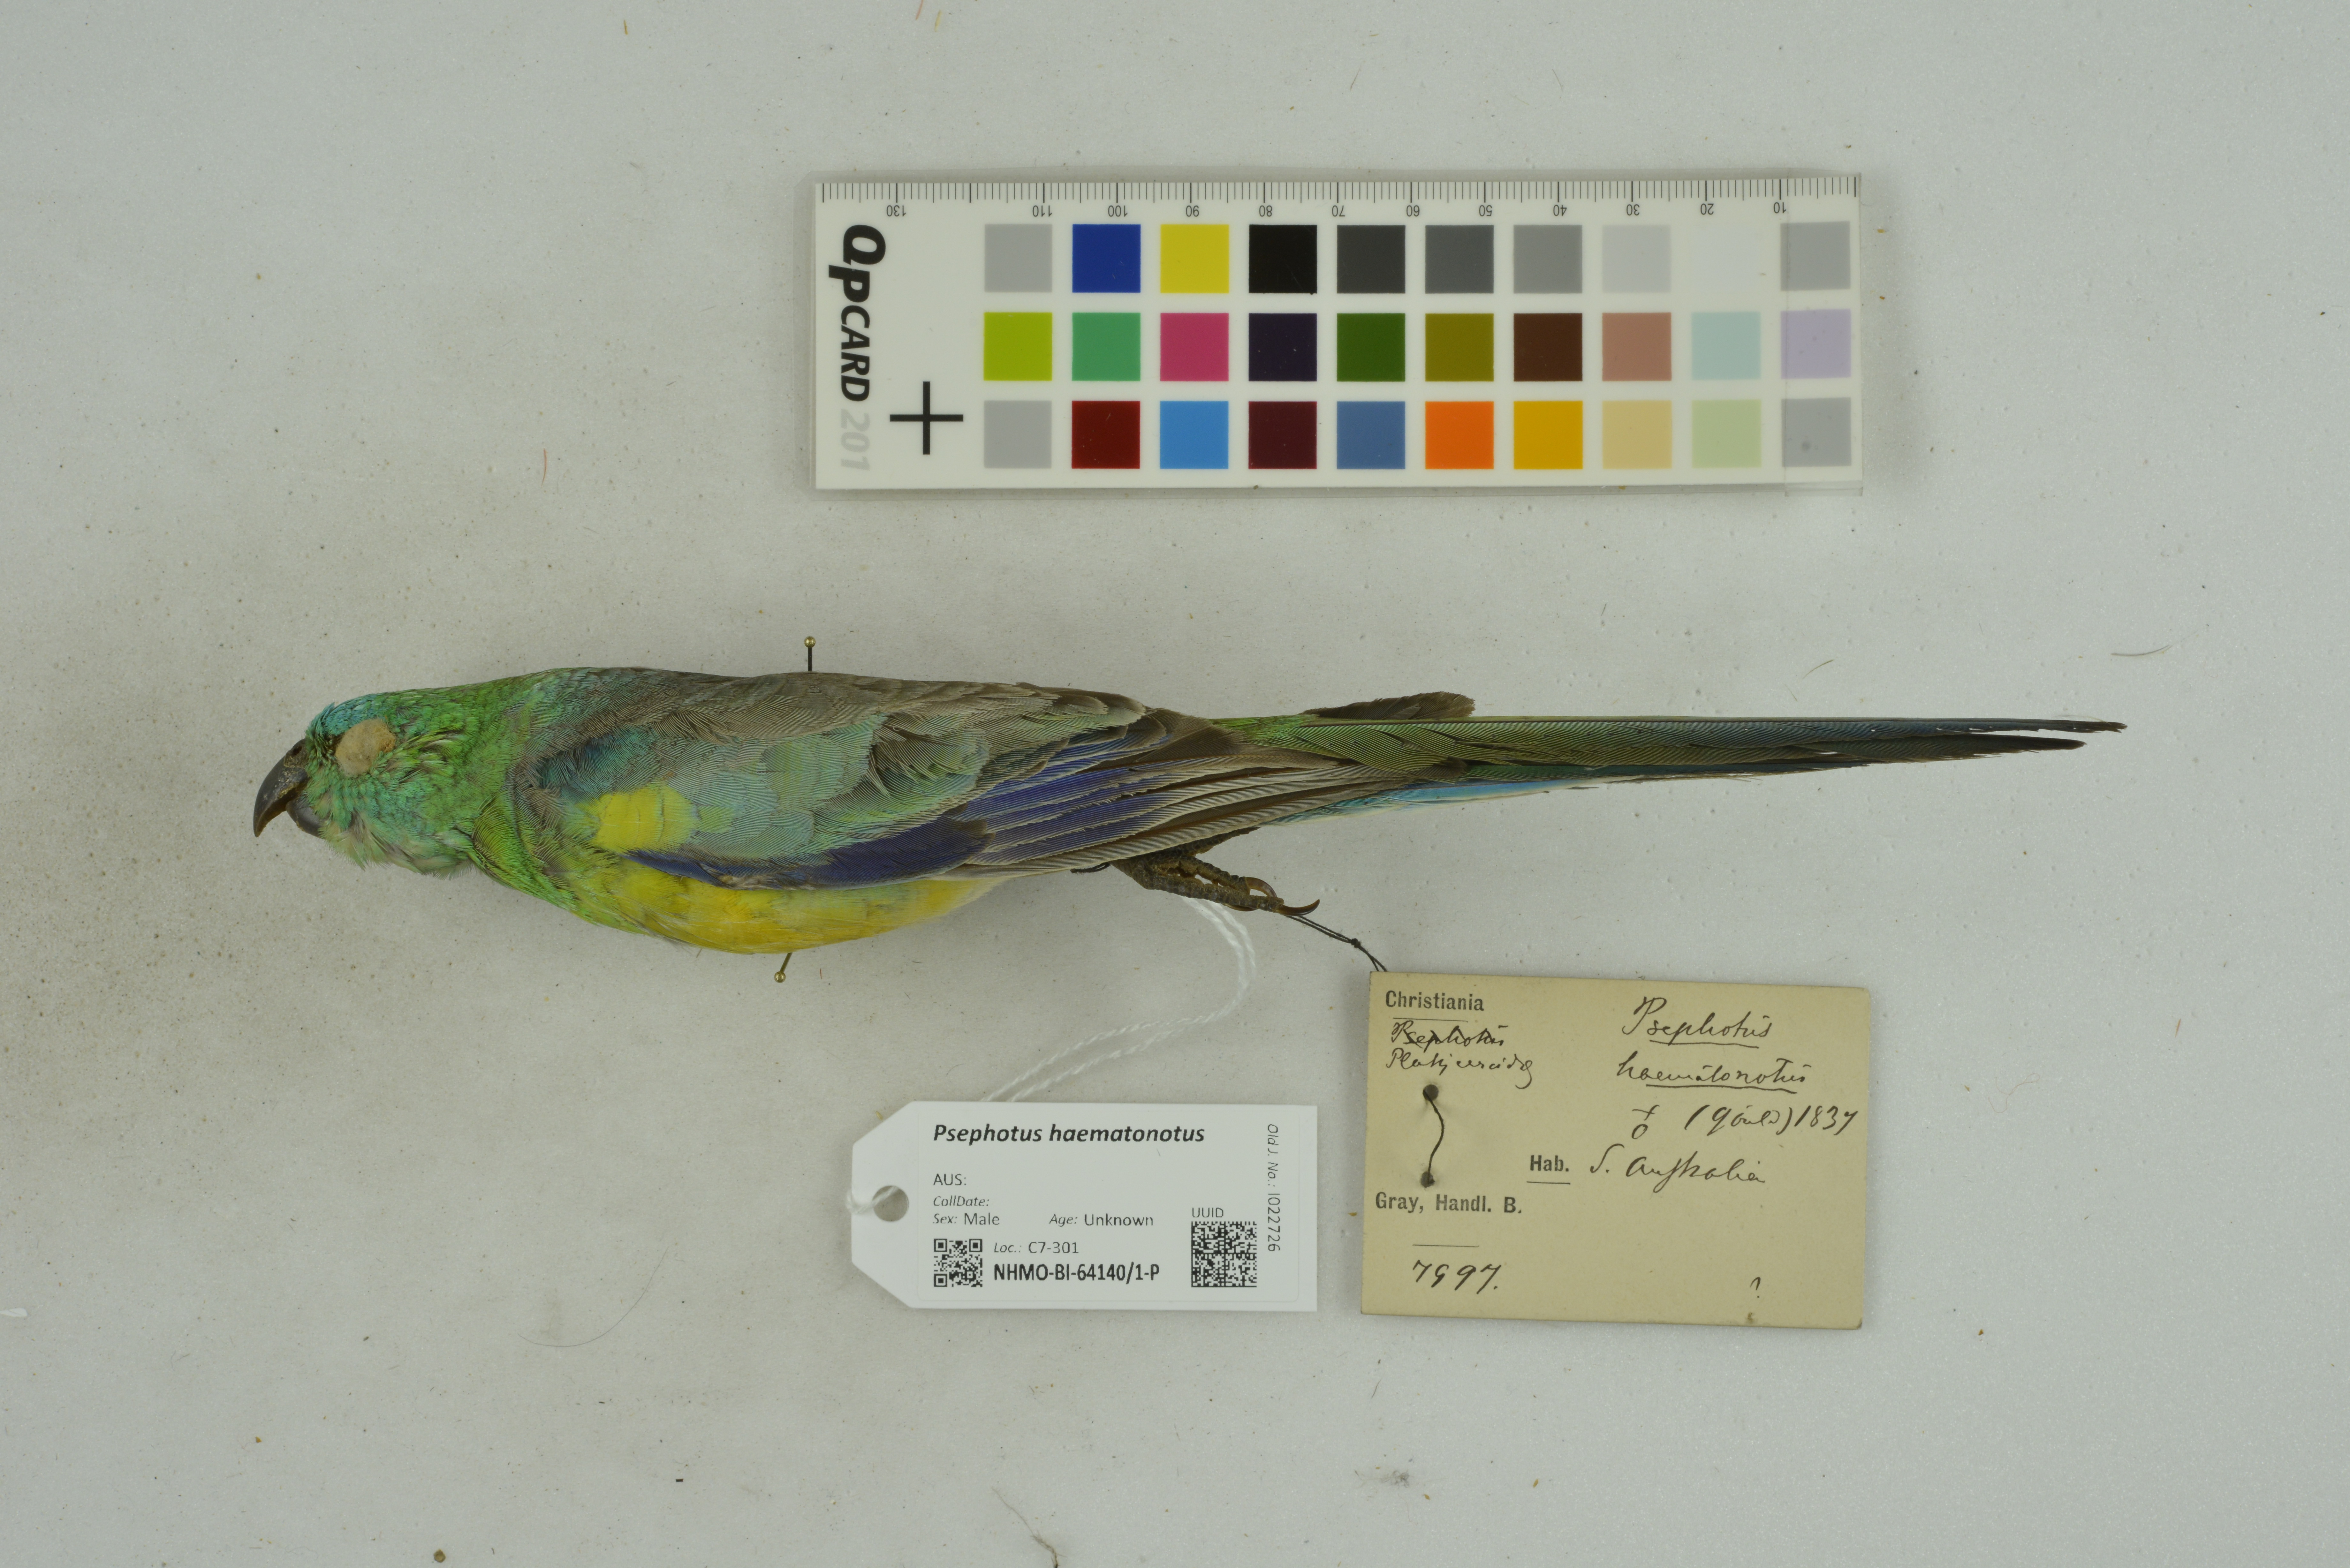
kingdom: Animalia
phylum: Chordata
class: Aves
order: Psittaciformes
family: Psittacidae
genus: Psephotus
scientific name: Psephotus haematonotus
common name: Red-rumped parrot
